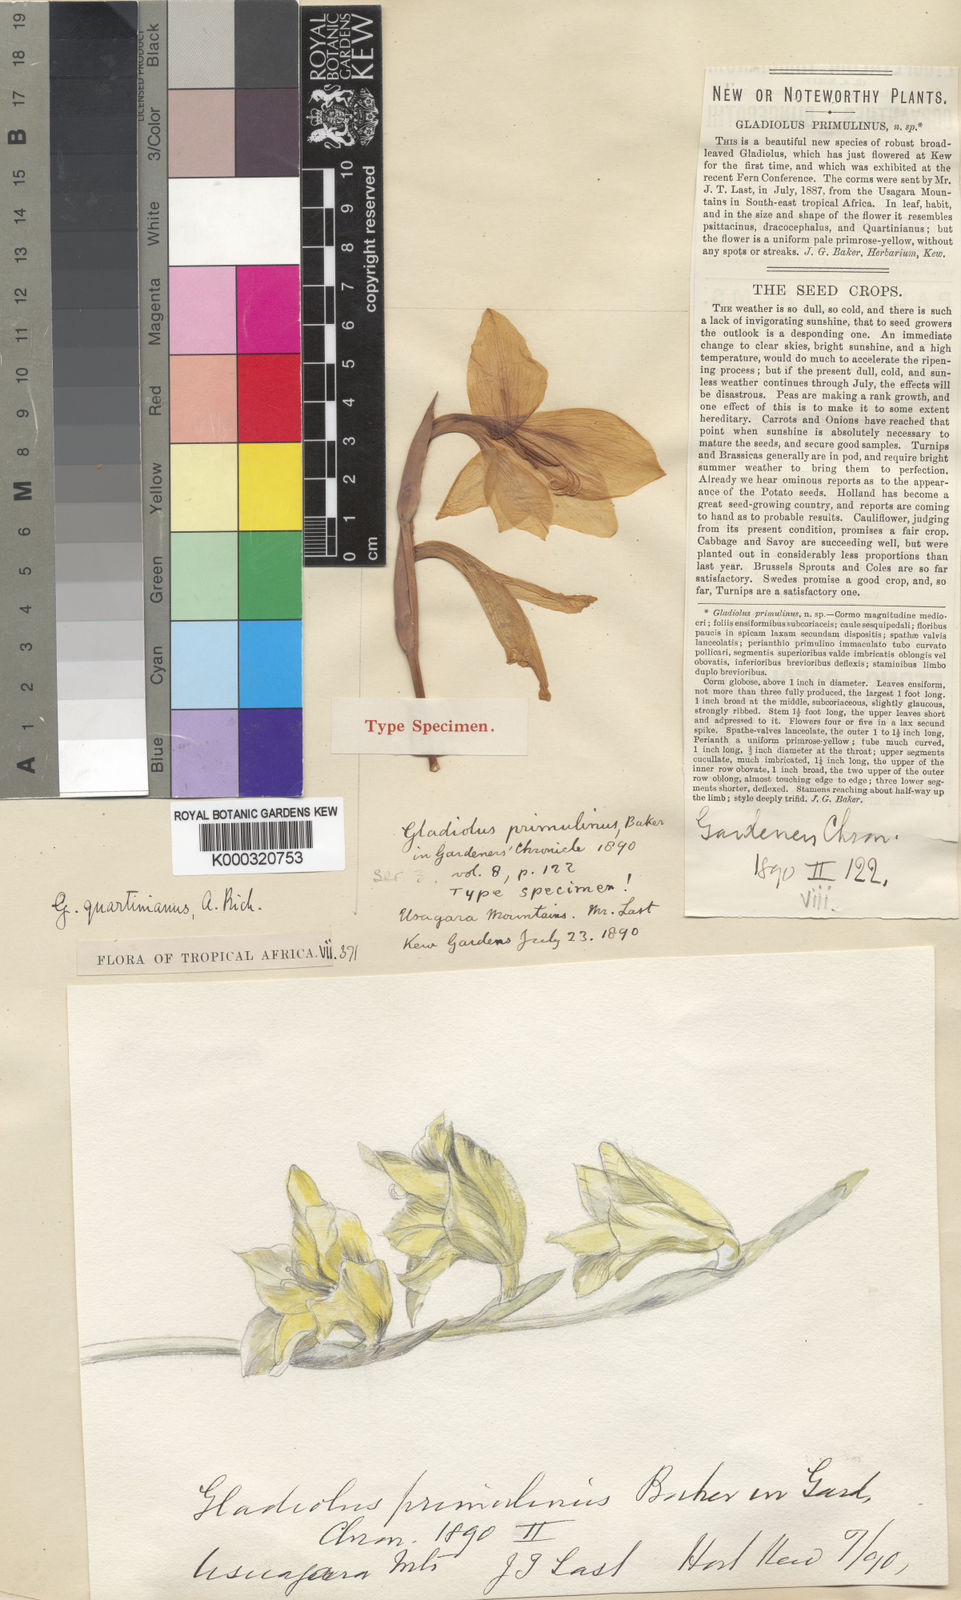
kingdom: Plantae
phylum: Tracheophyta
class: Liliopsida
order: Asparagales
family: Iridaceae
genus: Gladiolus
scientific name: Gladiolus dalenii
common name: Cornflag
